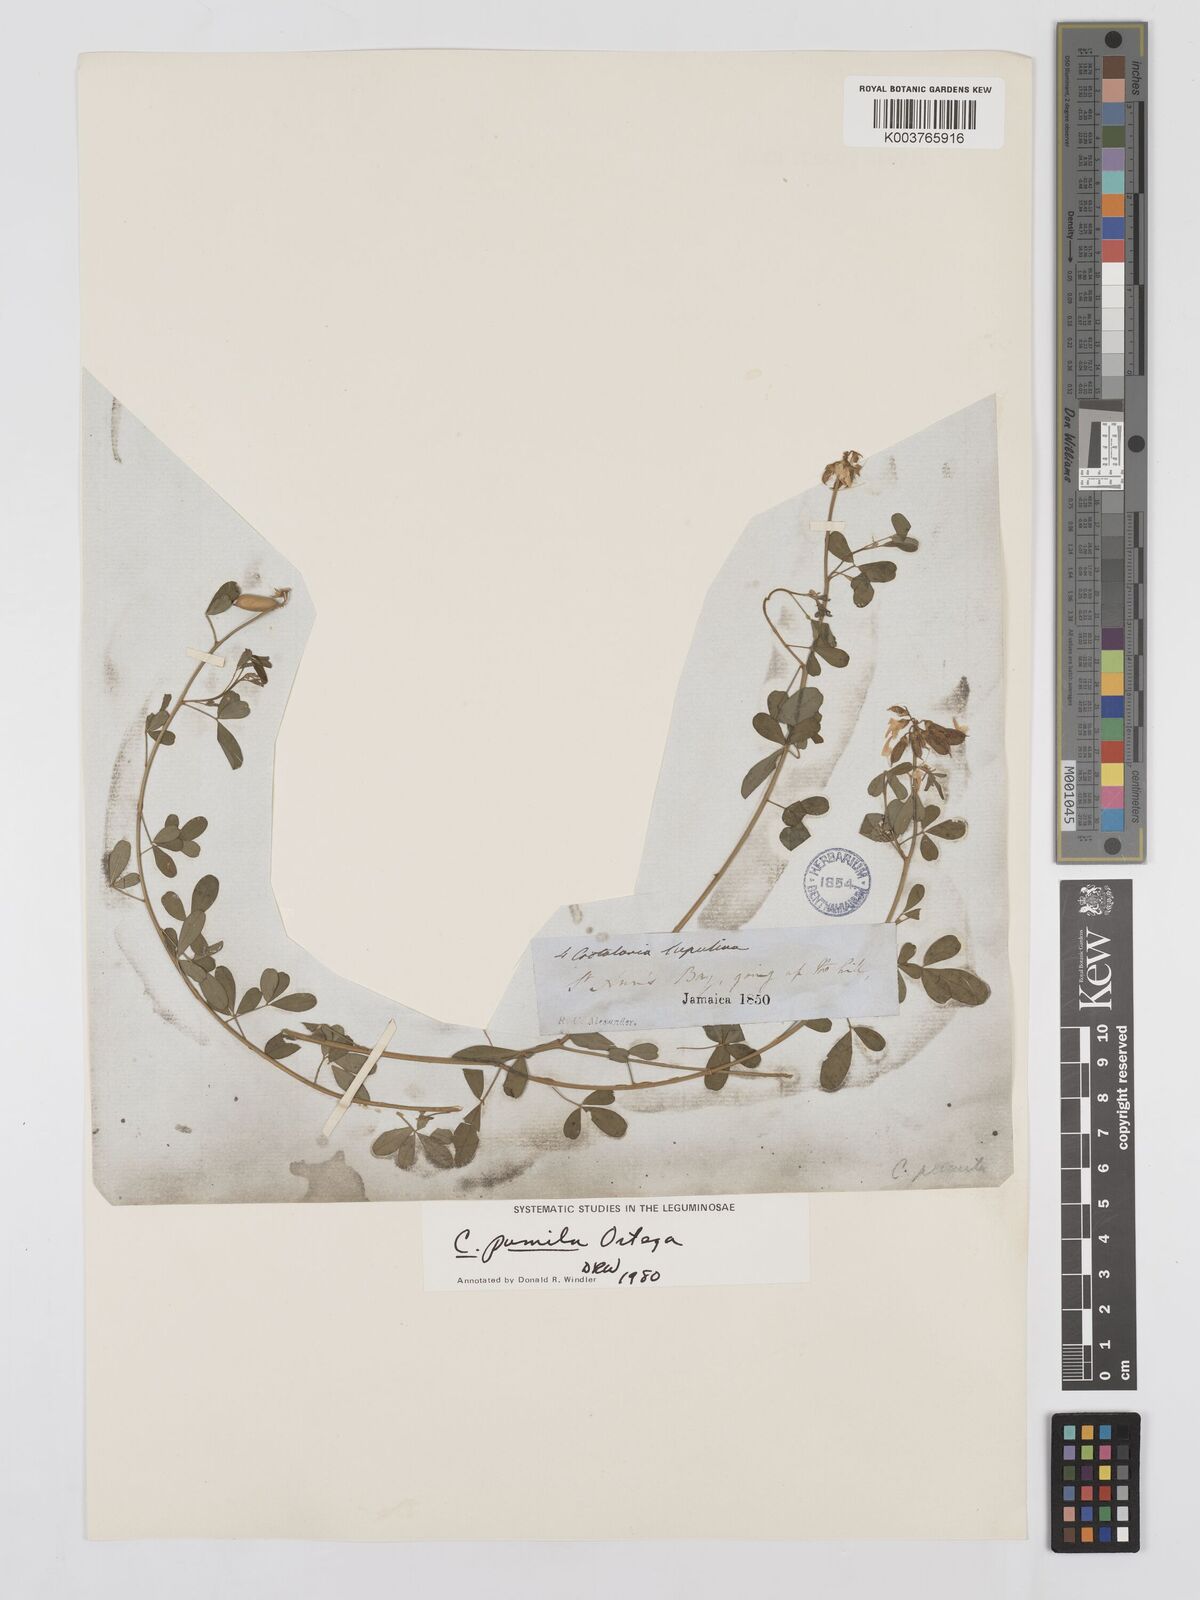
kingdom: Plantae
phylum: Tracheophyta
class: Magnoliopsida
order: Fabales
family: Fabaceae
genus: Crotalaria
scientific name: Crotalaria pumila
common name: Low rattlebox
